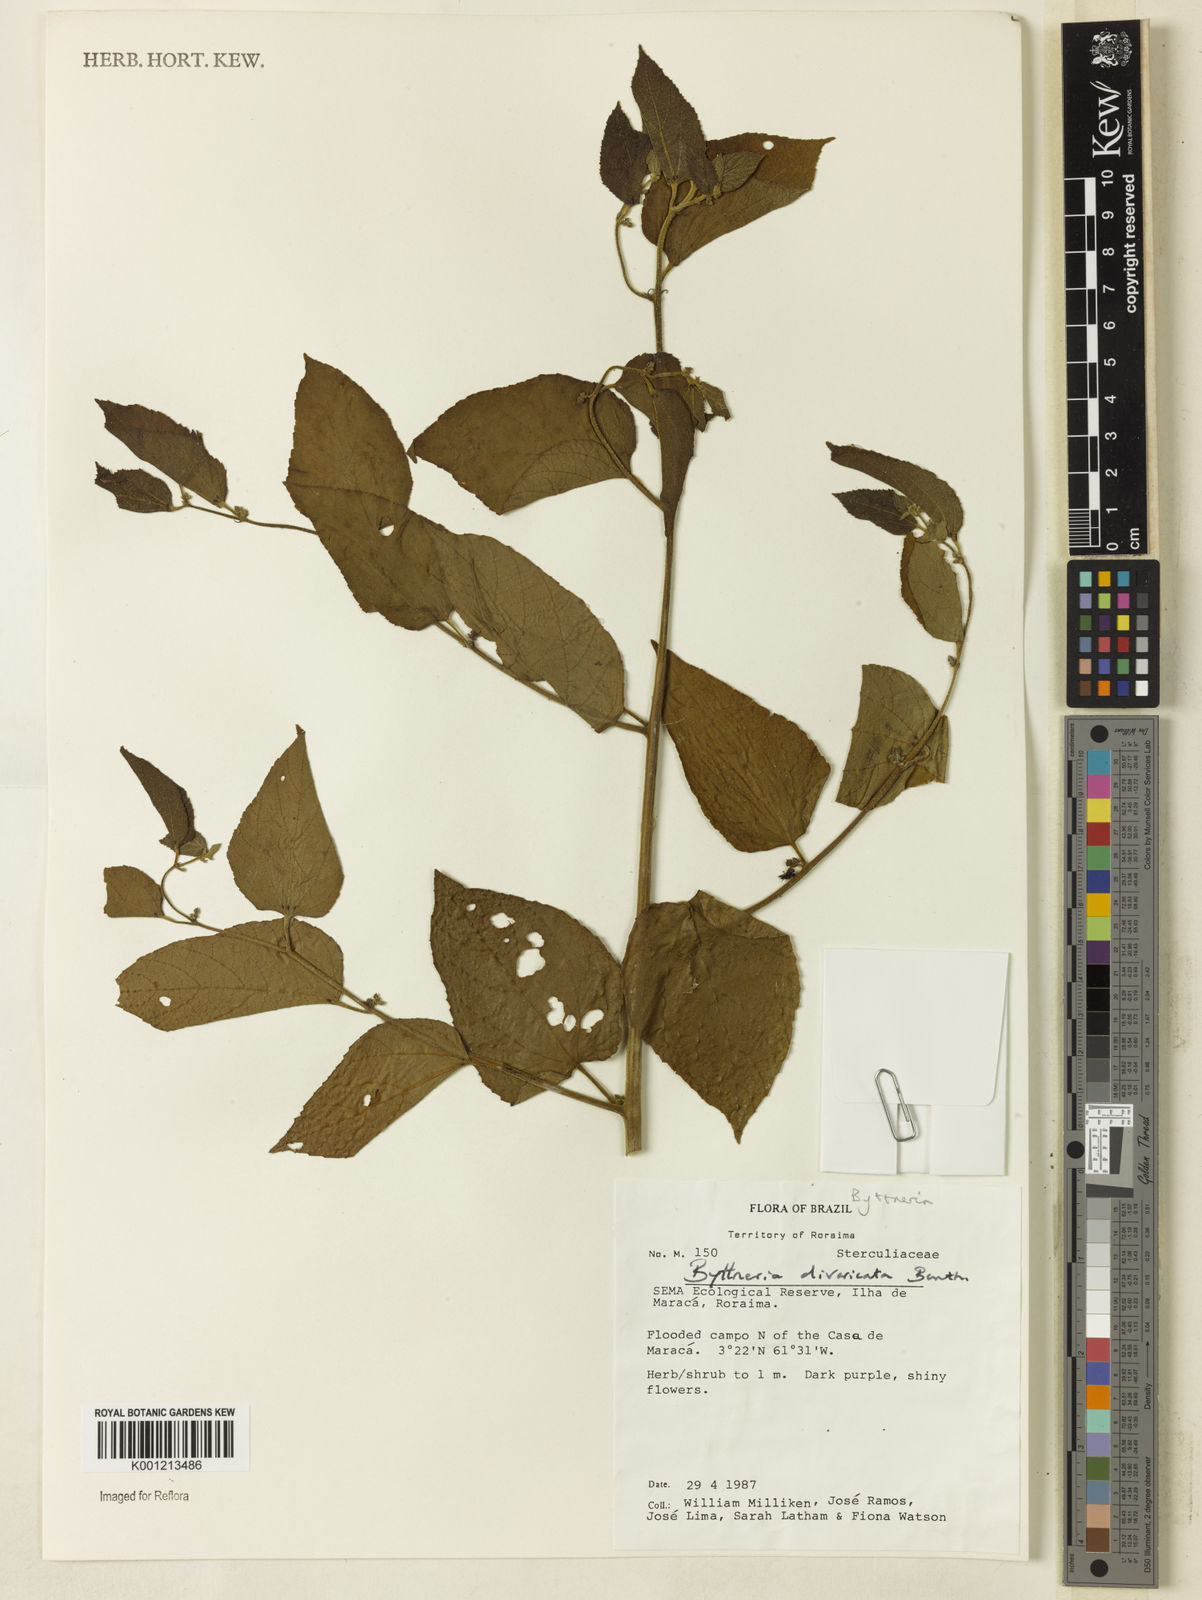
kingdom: Plantae
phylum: Tracheophyta
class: Magnoliopsida
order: Malvales
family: Malvaceae
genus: Byttneria
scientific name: Byttneria divaricata
